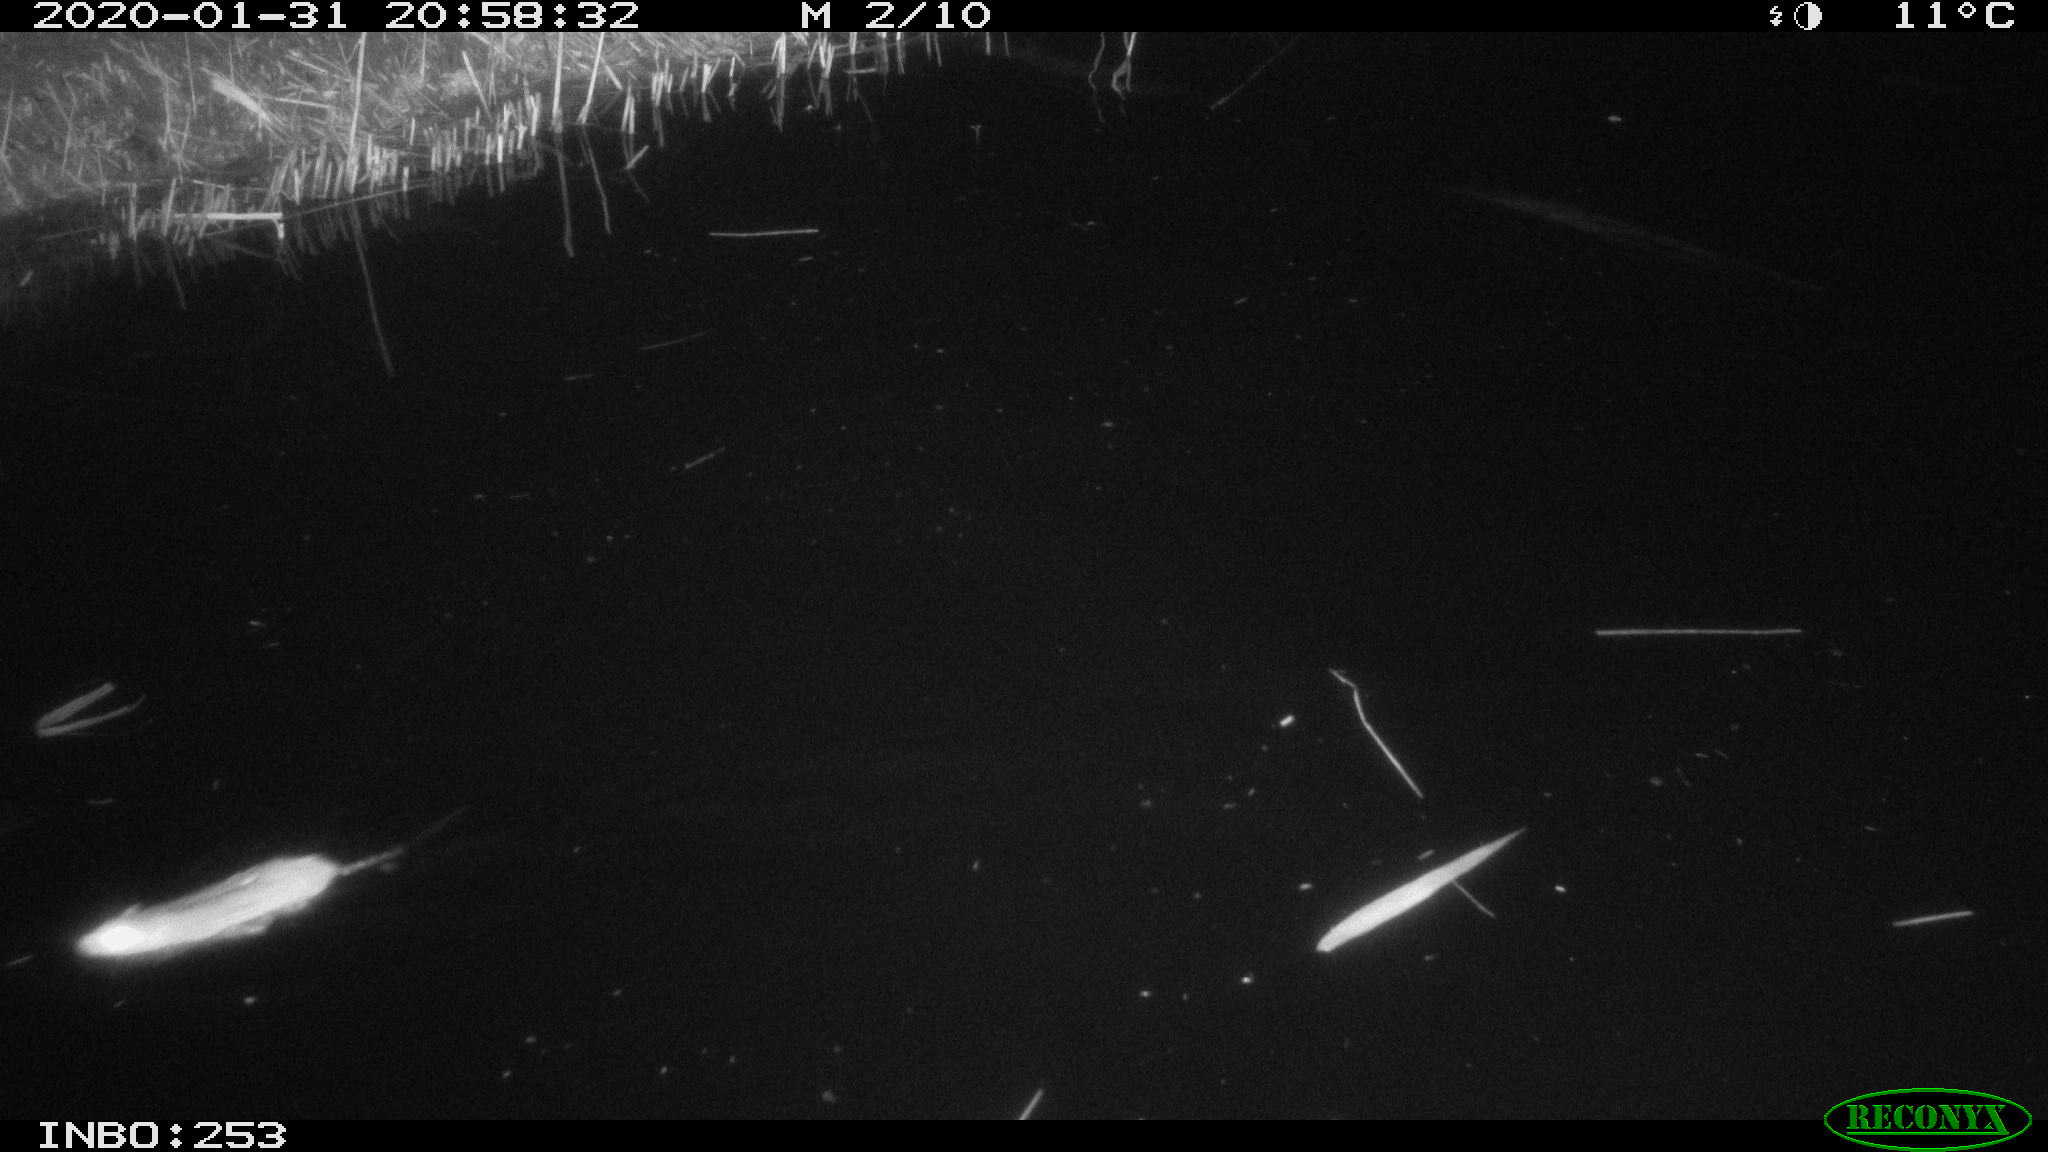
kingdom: Animalia
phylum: Chordata
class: Mammalia
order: Rodentia
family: Muridae
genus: Rattus
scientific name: Rattus norvegicus
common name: Brown rat
